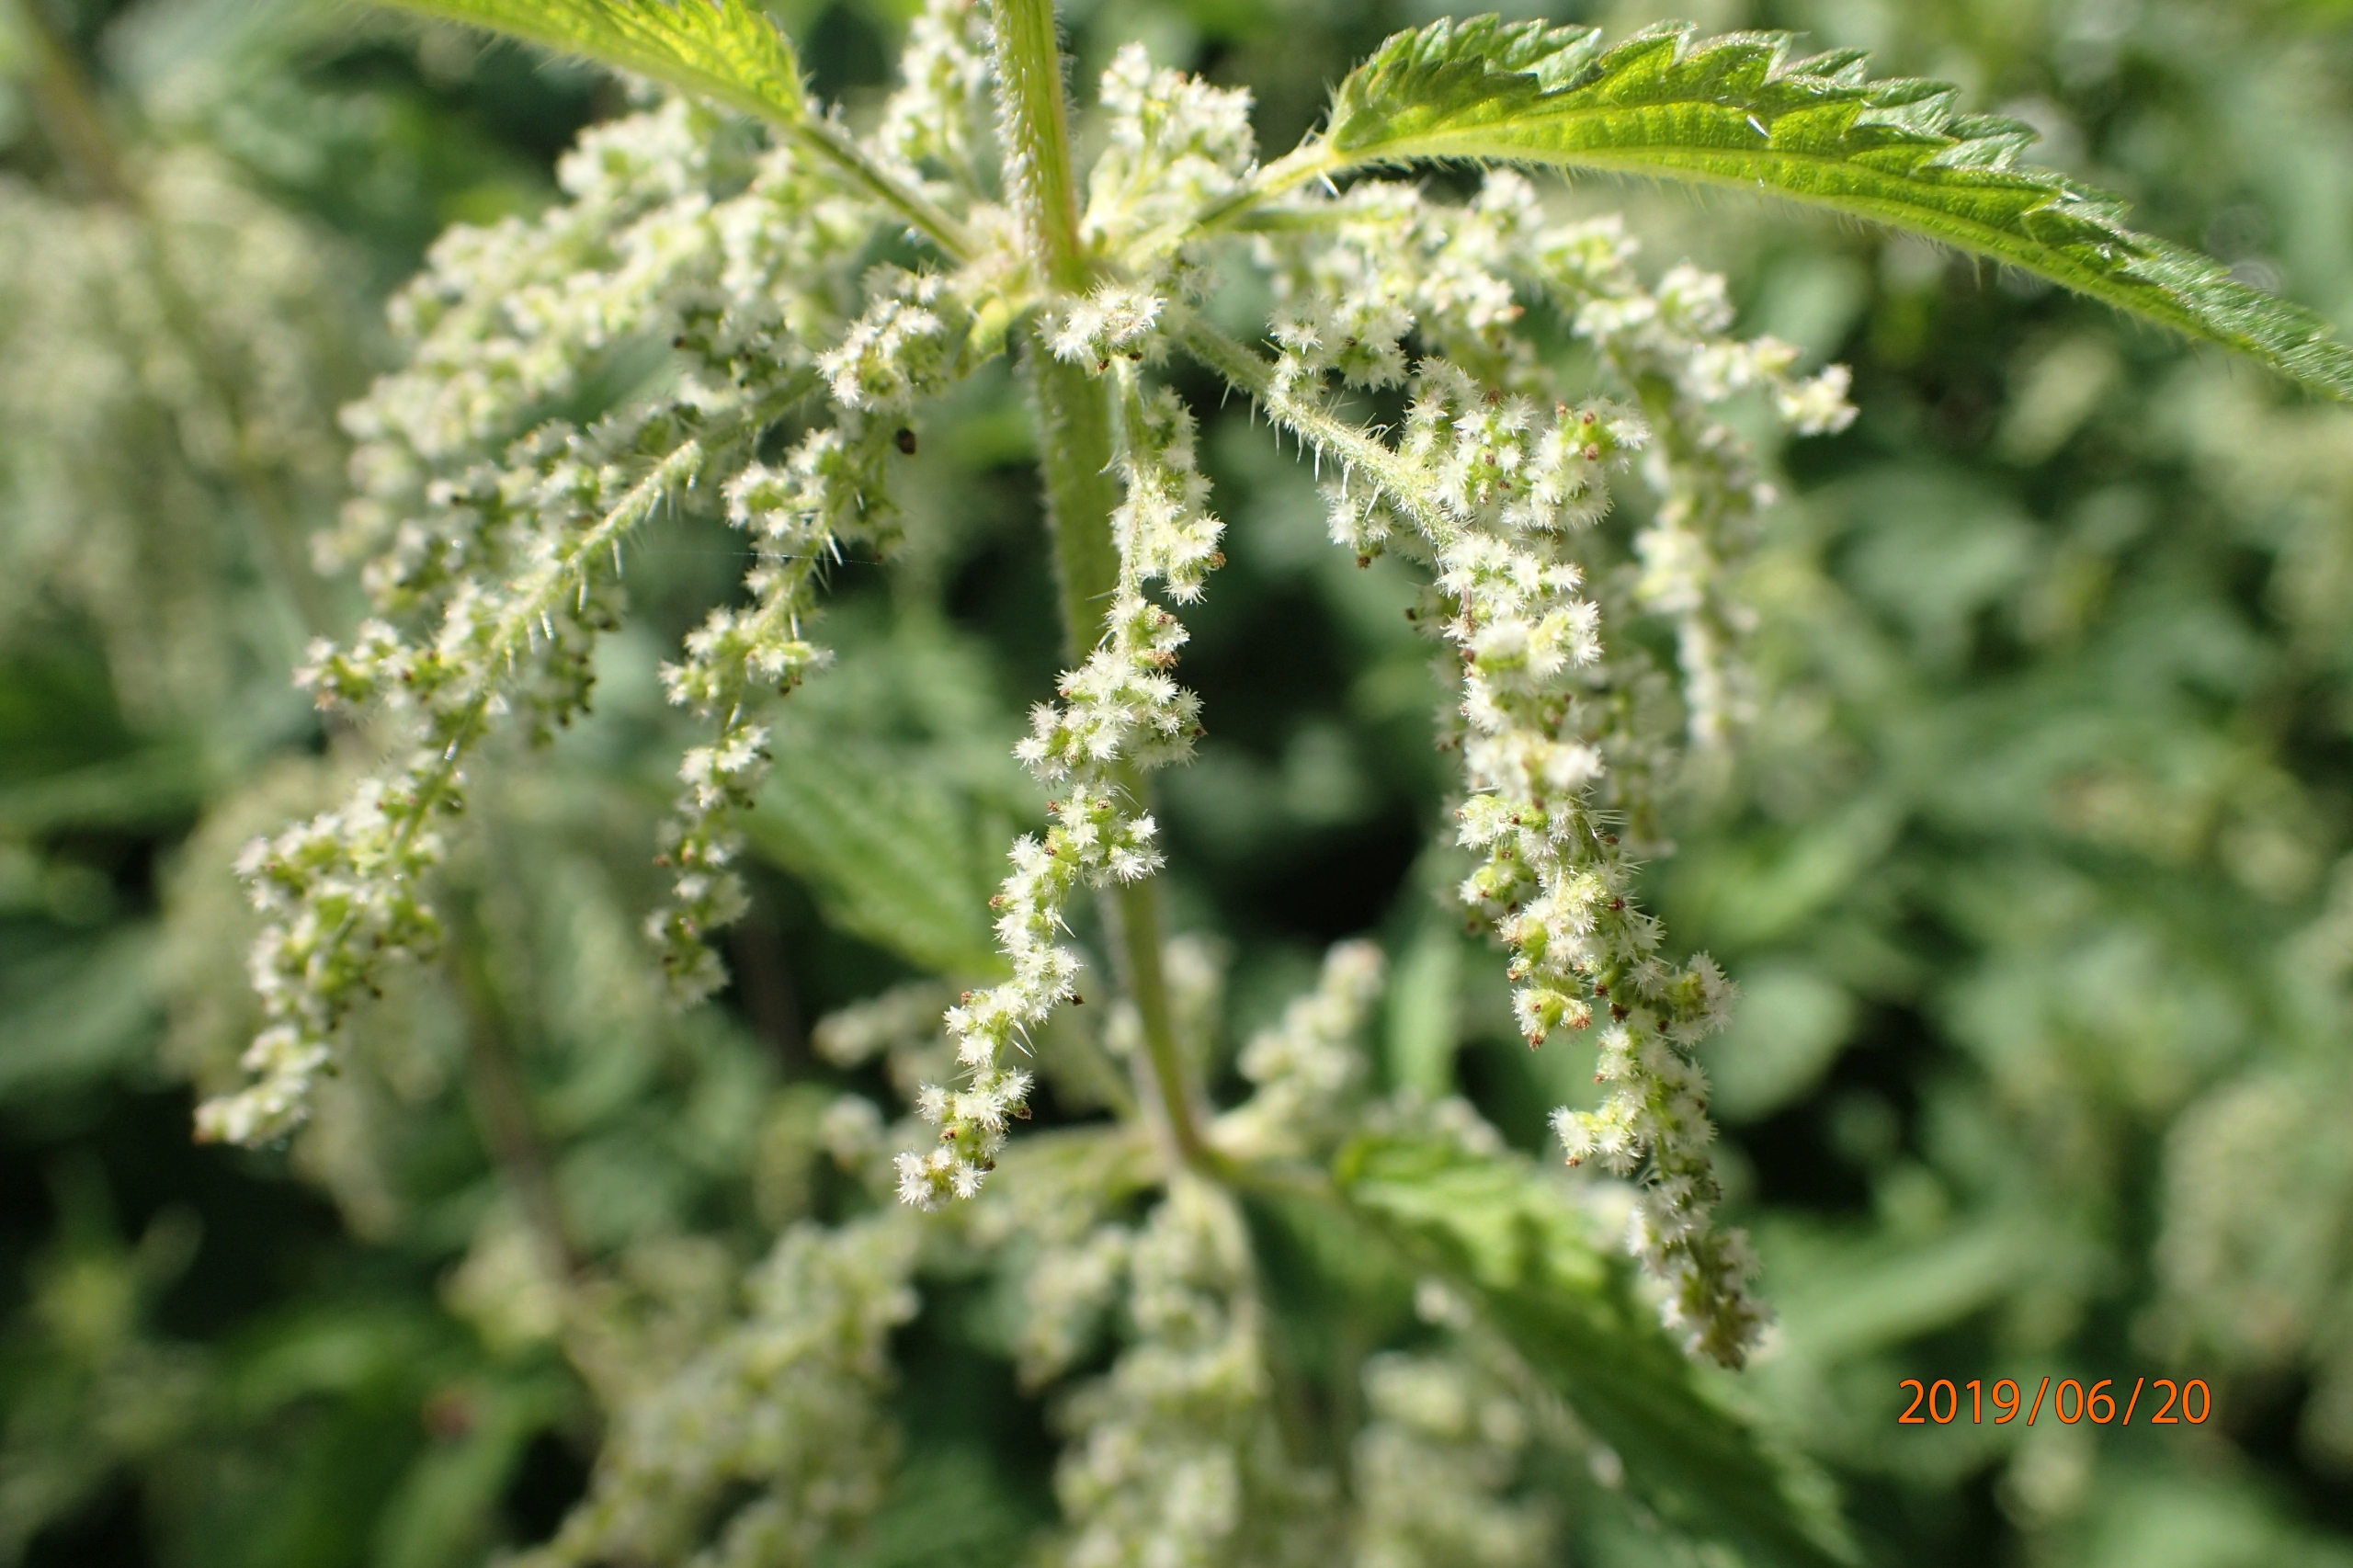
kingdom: Plantae
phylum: Tracheophyta
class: Magnoliopsida
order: Rosales
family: Urticaceae
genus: Urtica
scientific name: Urtica dioica
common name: Stor nælde
